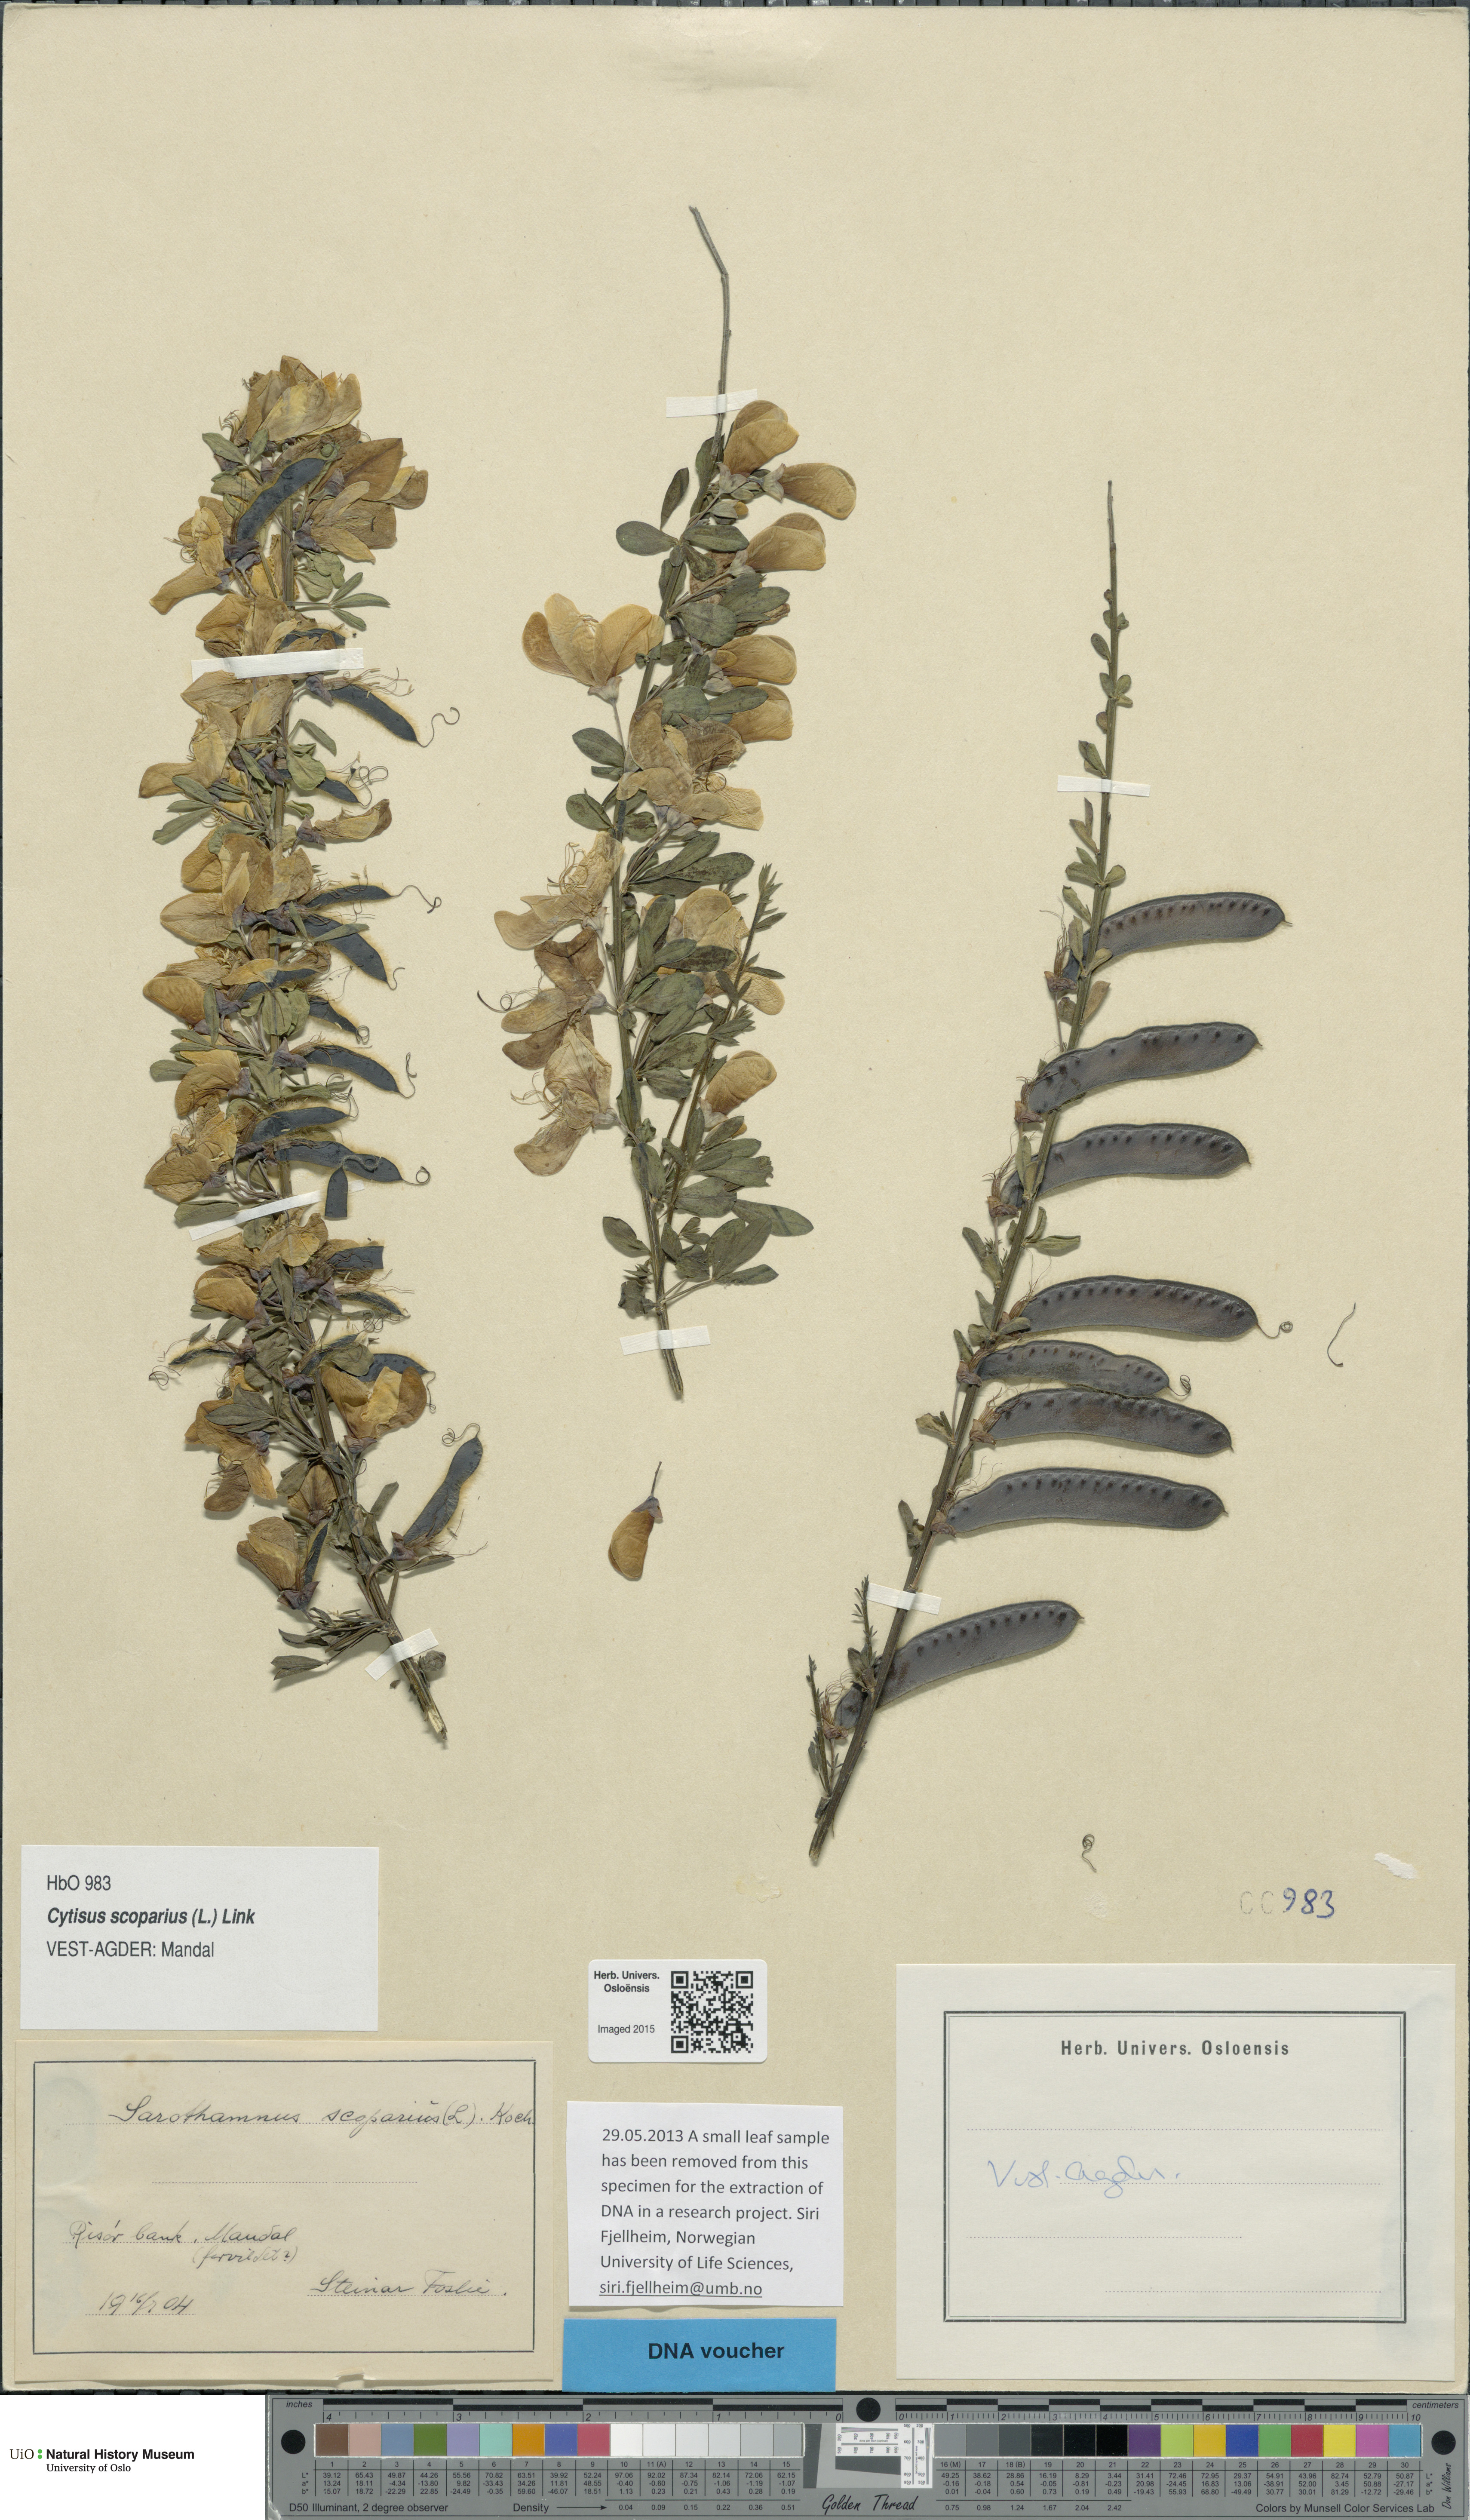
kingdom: Plantae
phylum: Tracheophyta
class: Magnoliopsida
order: Fabales
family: Fabaceae
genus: Cytisus
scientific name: Cytisus scoparius
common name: Scotch broom
